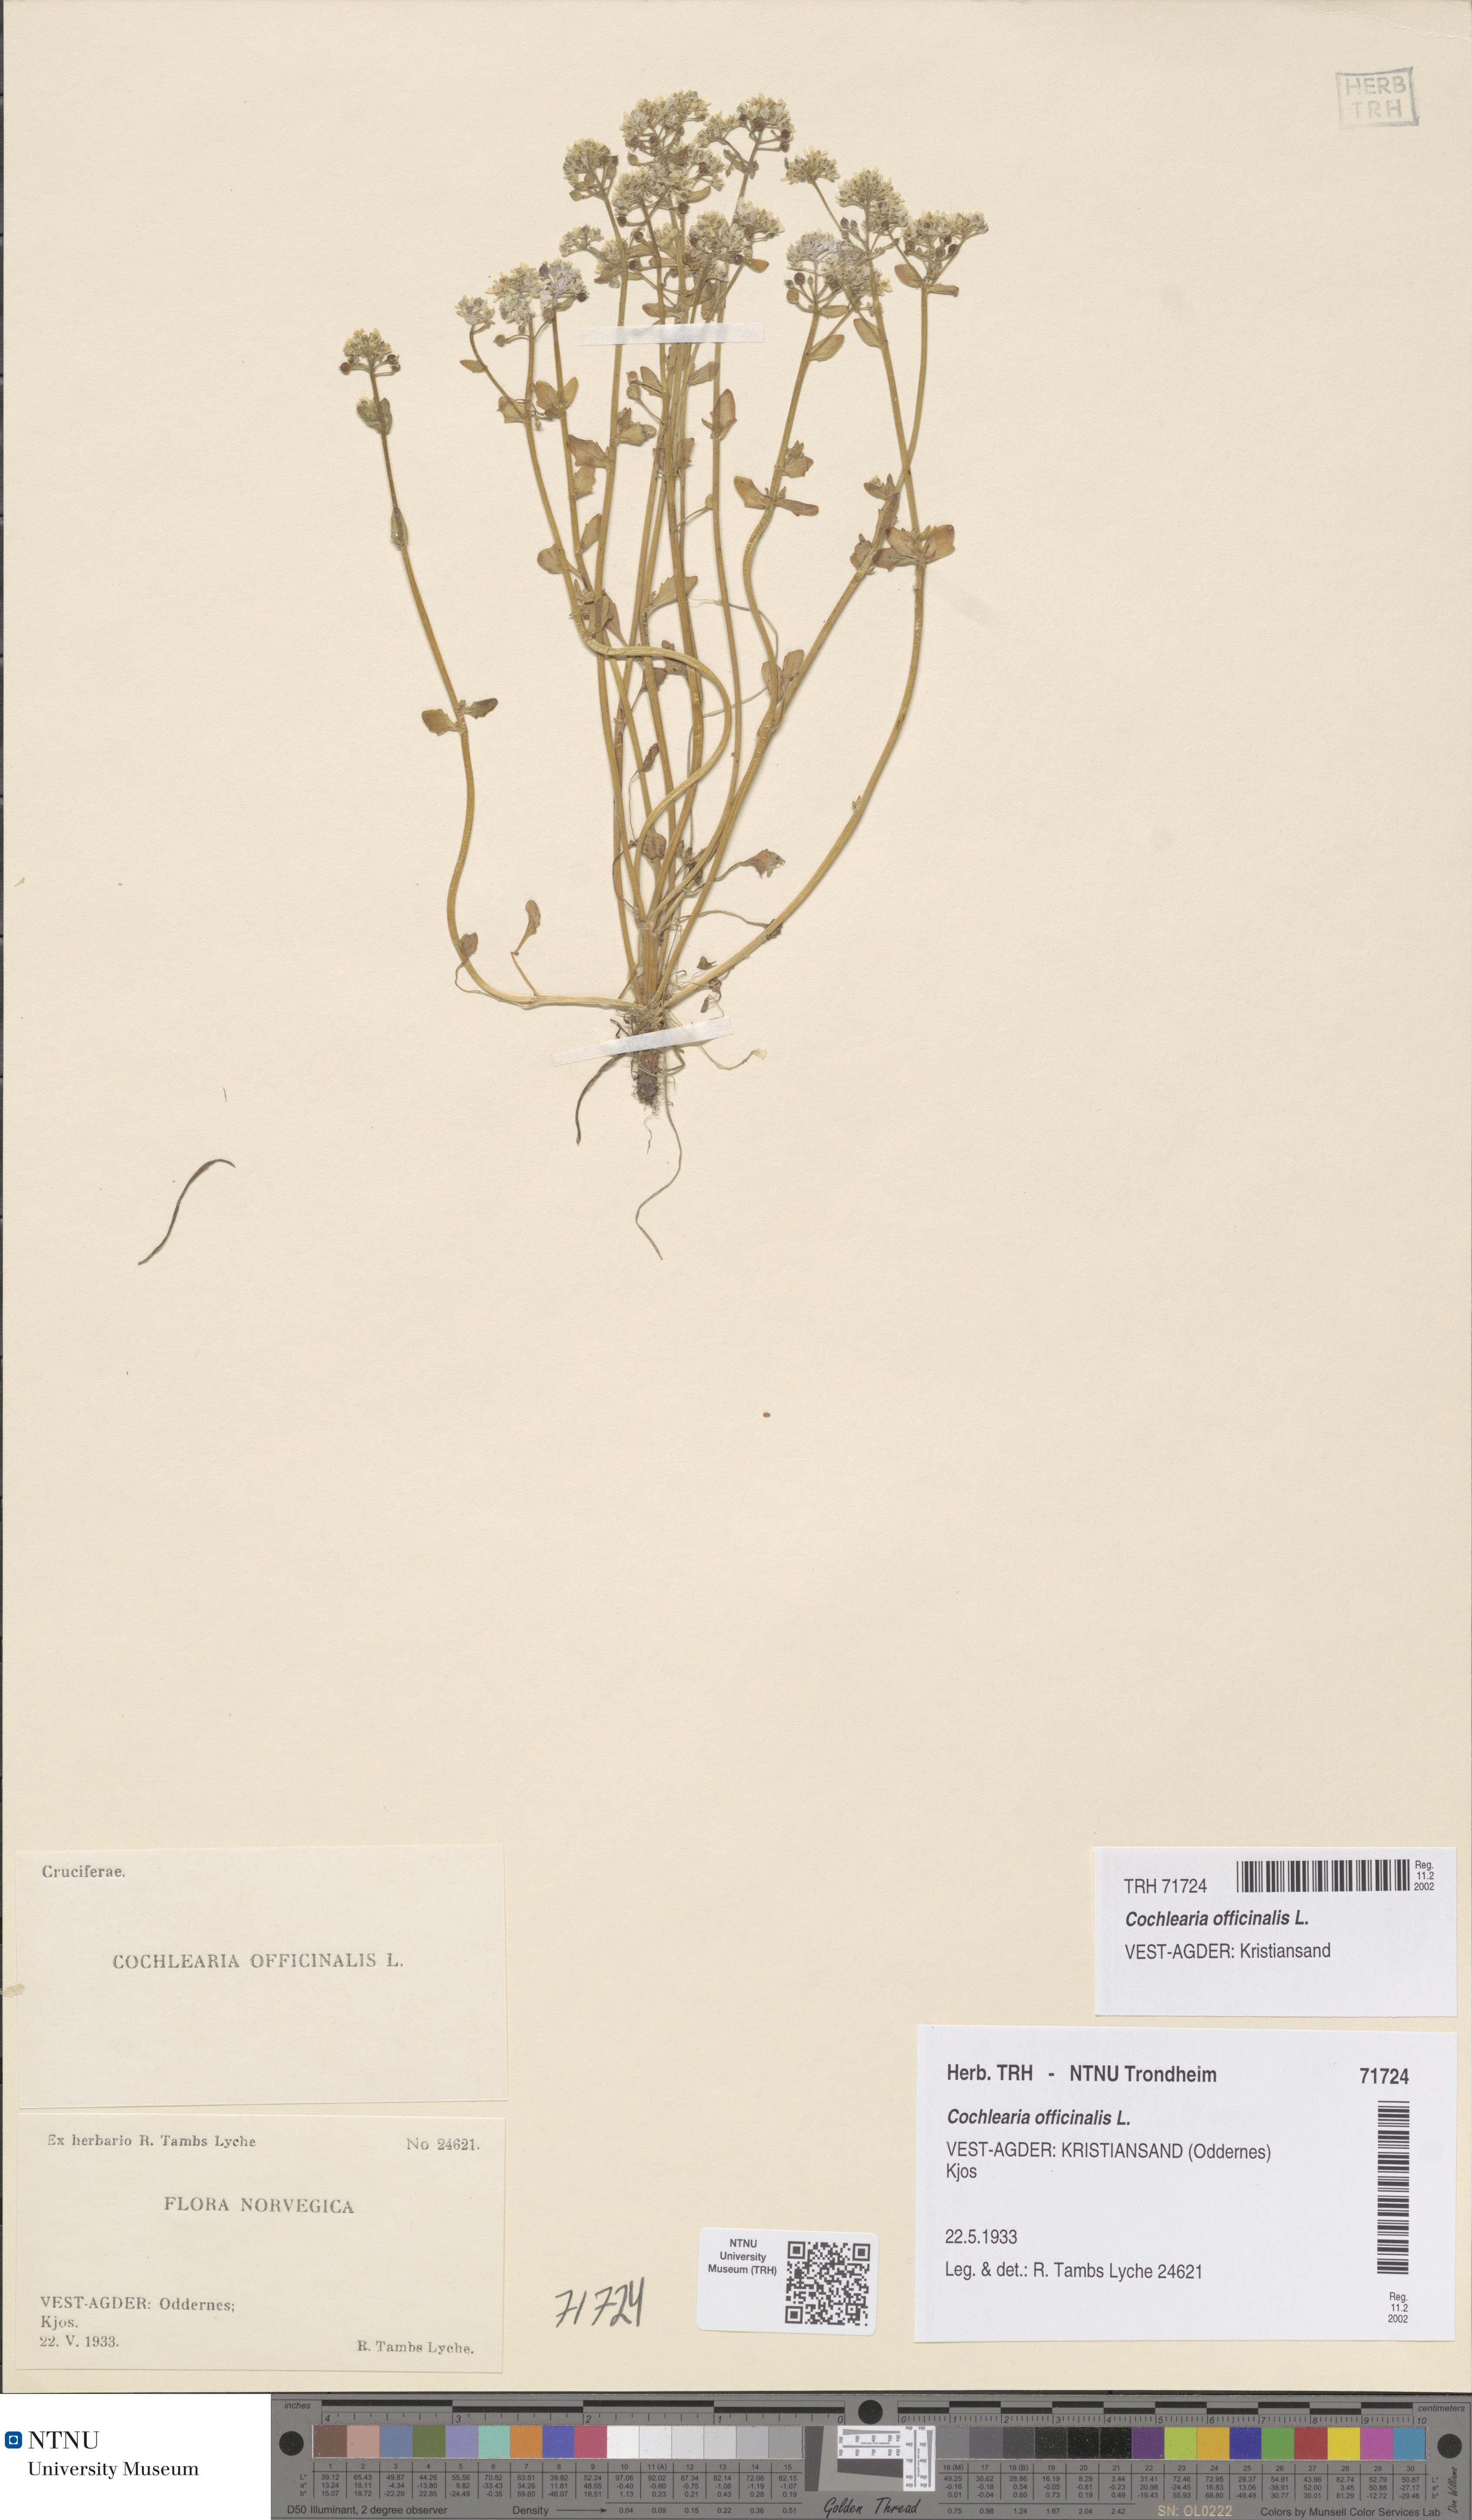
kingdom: Plantae
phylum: Tracheophyta
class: Magnoliopsida
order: Brassicales
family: Brassicaceae
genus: Cochlearia
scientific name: Cochlearia officinalis
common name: Scurvy-grass
